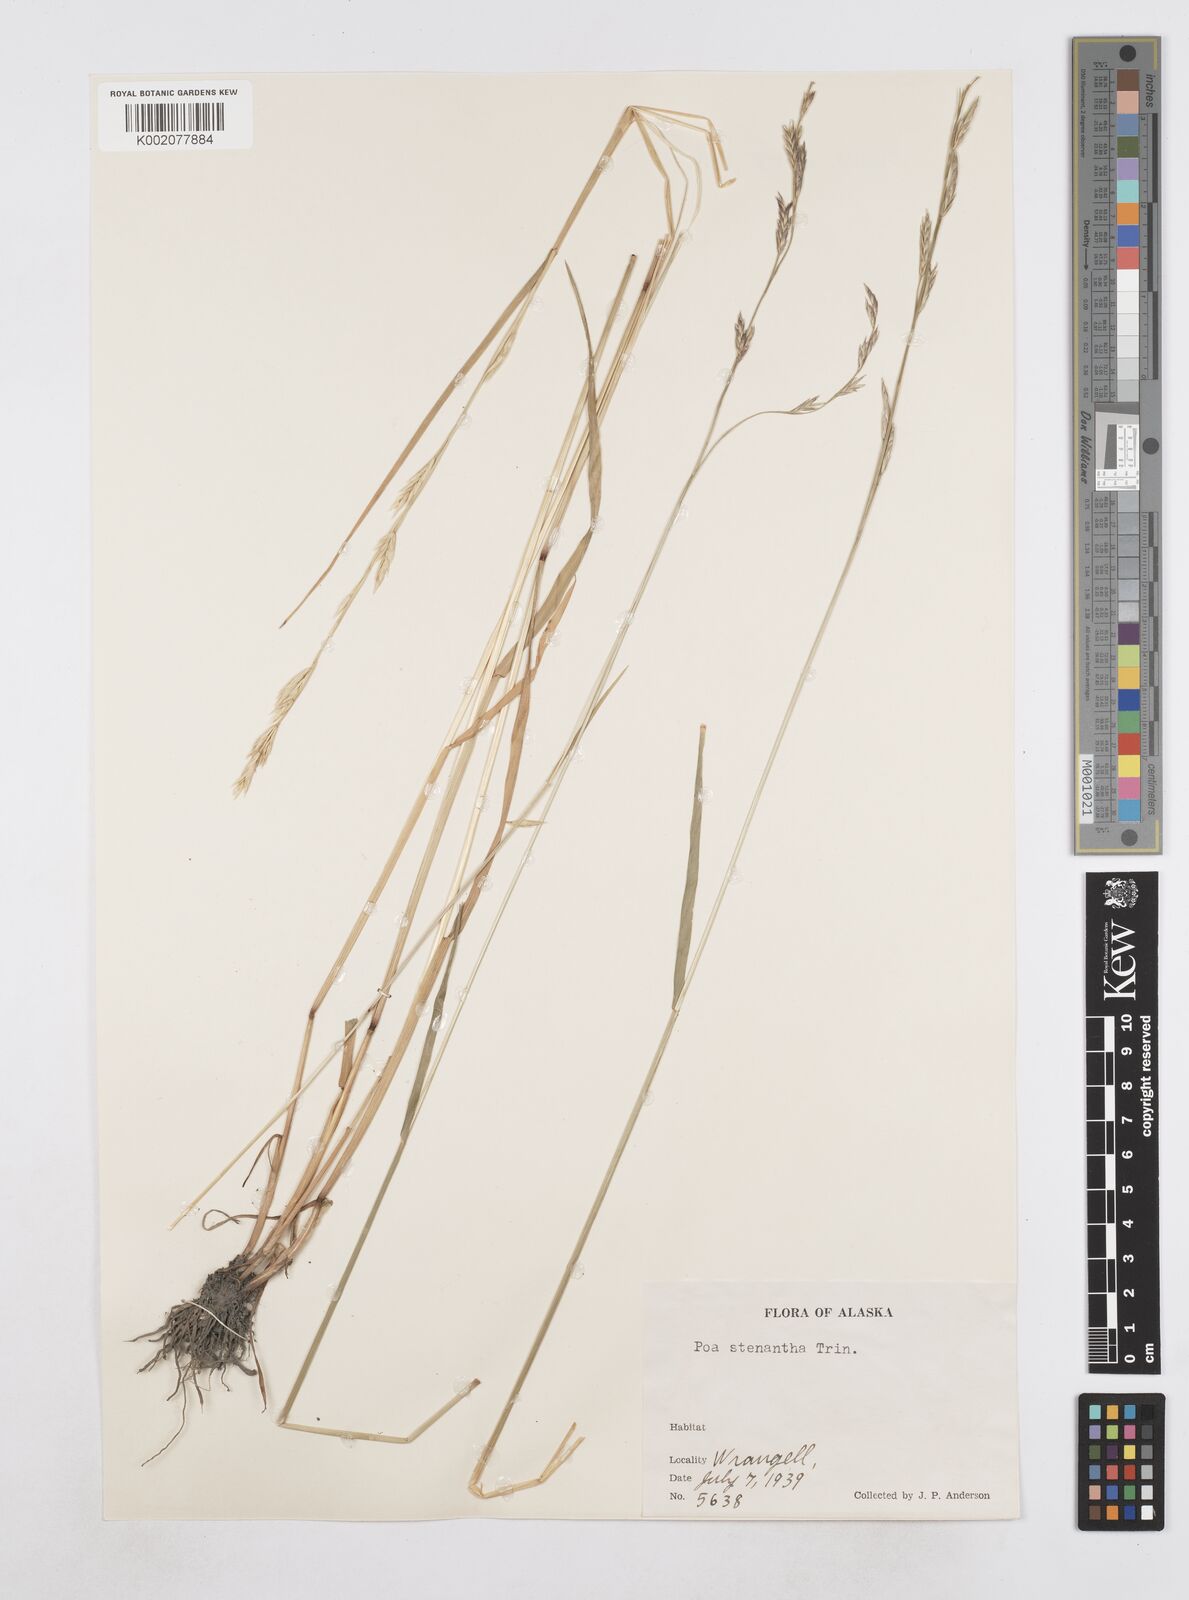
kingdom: Plantae
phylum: Tracheophyta
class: Liliopsida
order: Poales
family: Poaceae
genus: Poa
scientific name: Poa stenantha
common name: Narrow-flowered bluegrass
